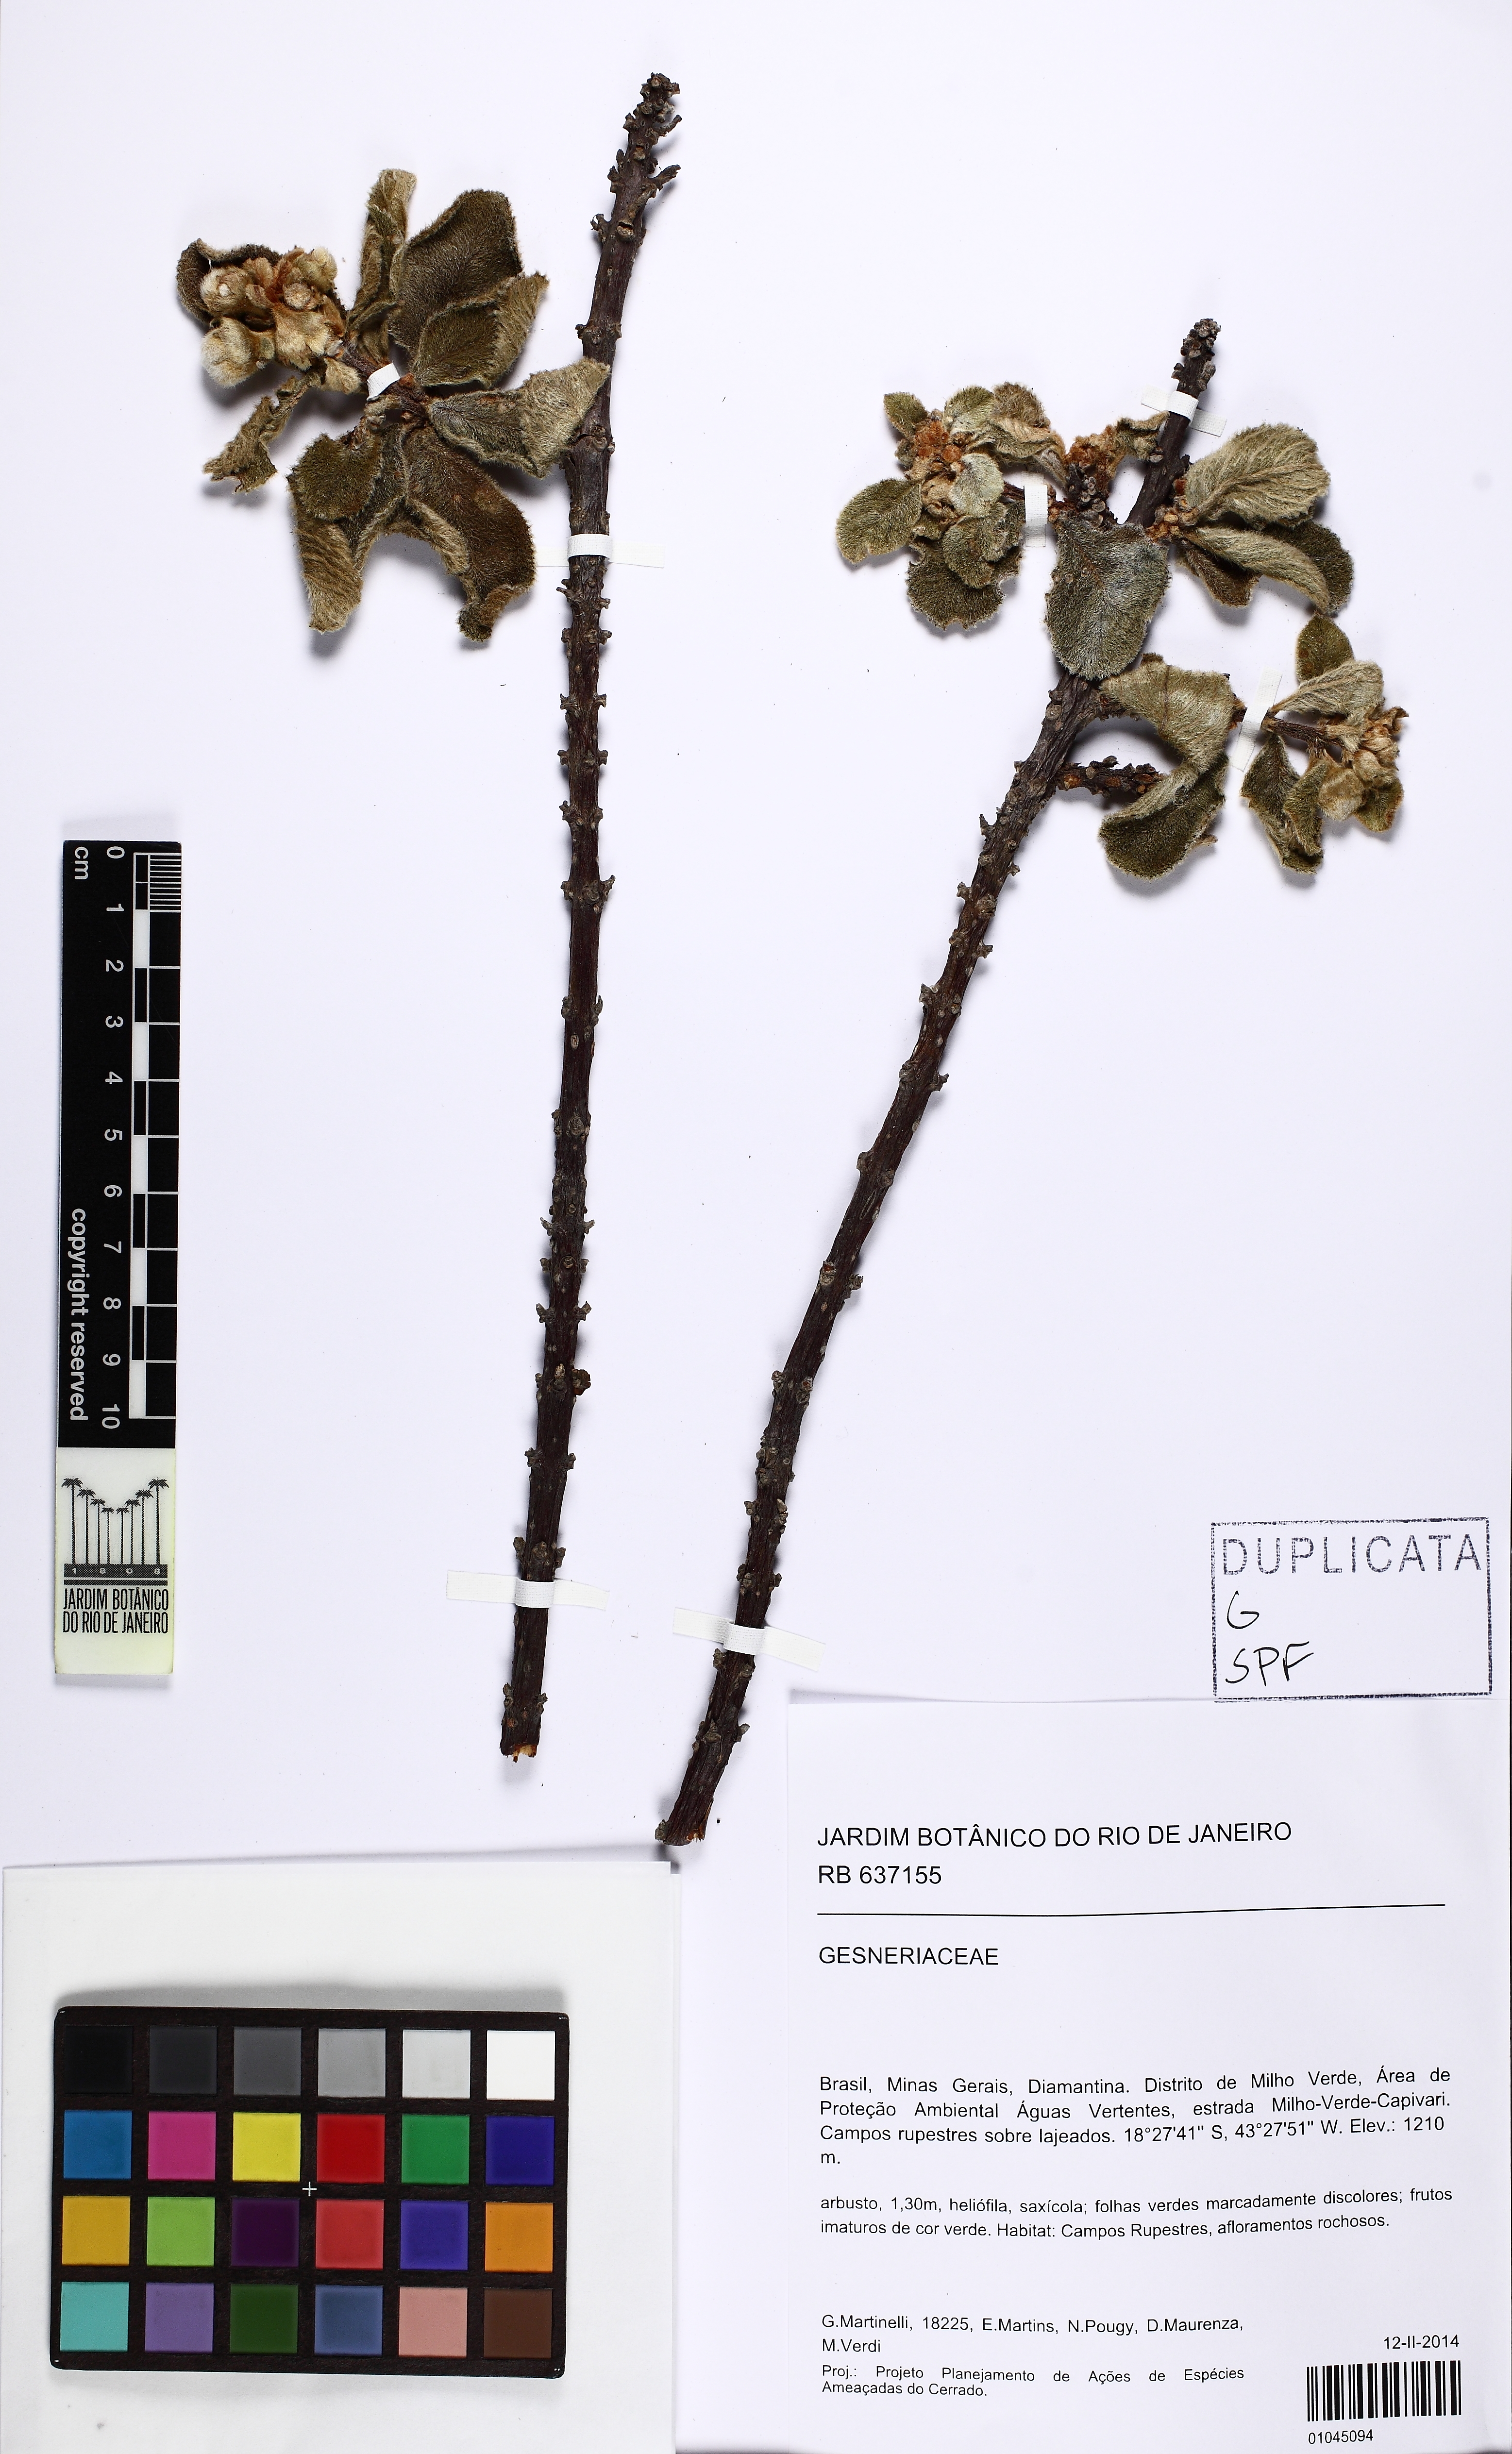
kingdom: Plantae
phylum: Tracheophyta
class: Magnoliopsida
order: Lamiales
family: Gesneriaceae
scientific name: Gesneriaceae
